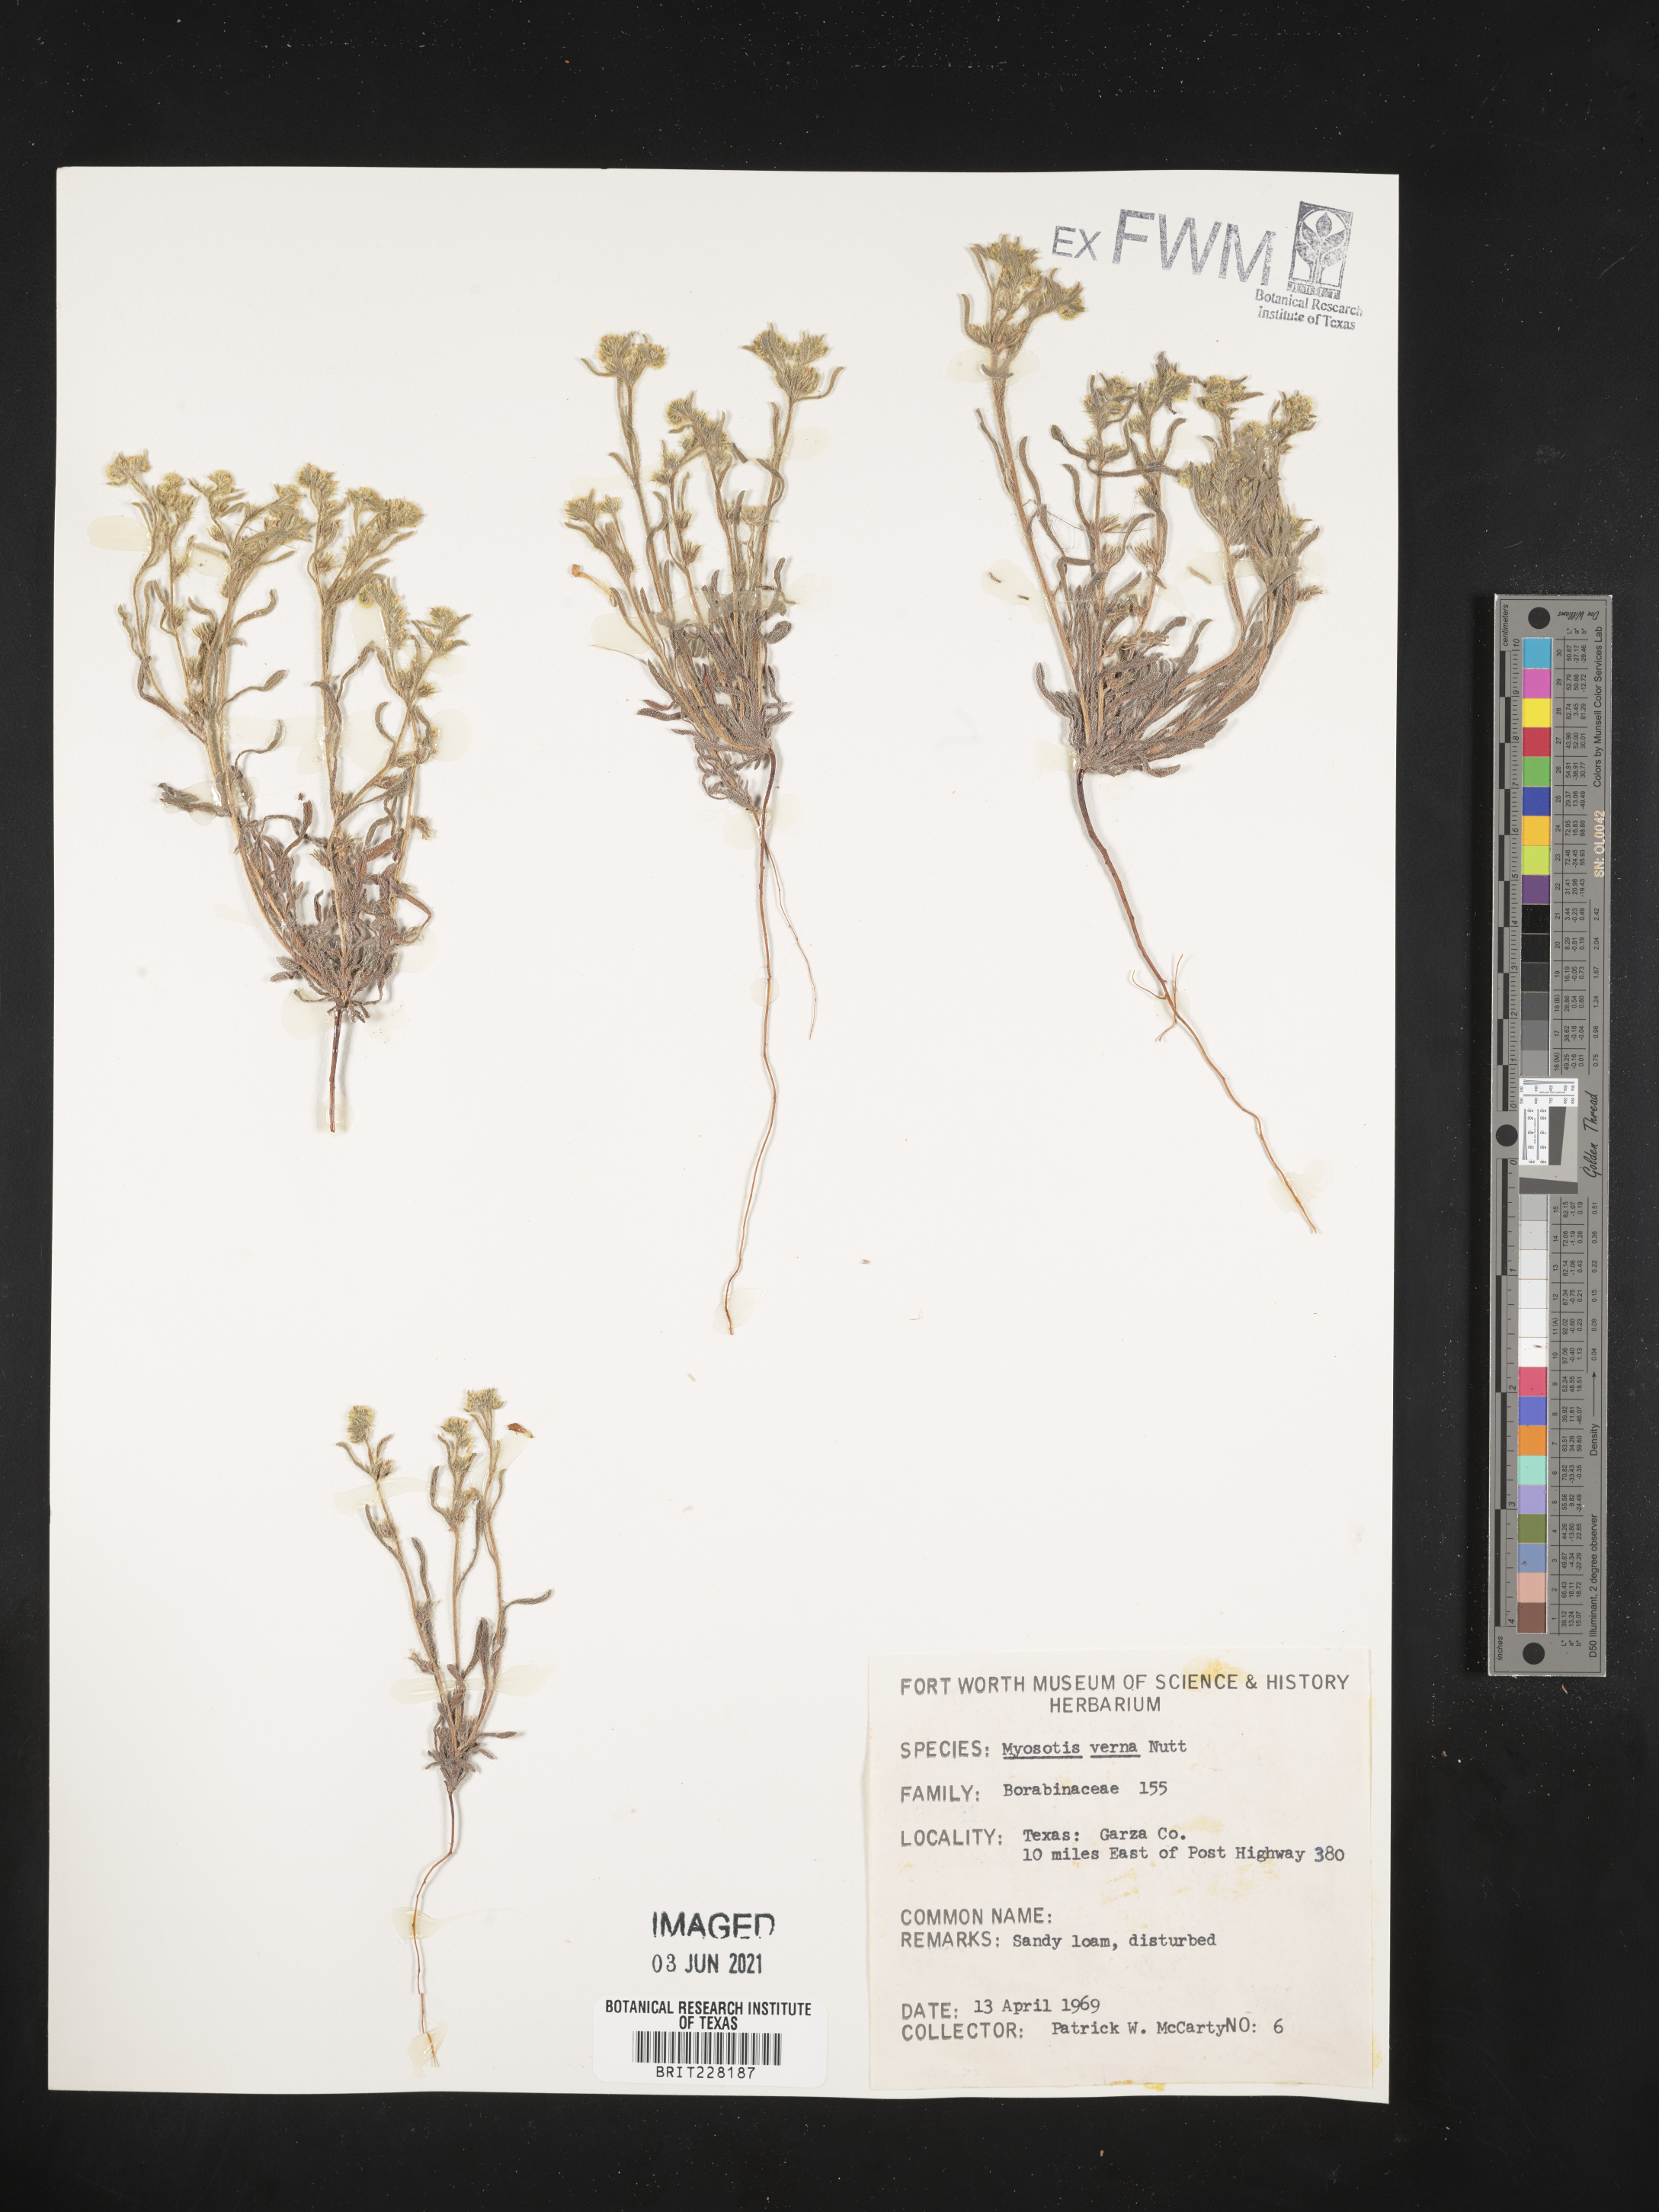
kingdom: Plantae
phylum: Tracheophyta
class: Magnoliopsida
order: Boraginales
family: Boraginaceae
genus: Myosotis
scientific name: Myosotis verna
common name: Early forget-me-not
